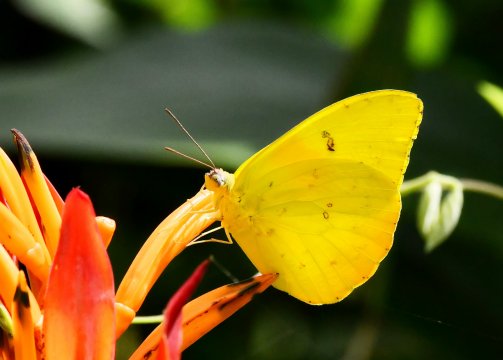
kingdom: Animalia
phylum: Arthropoda
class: Insecta
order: Lepidoptera
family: Pieridae
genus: Phoebis
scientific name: Phoebis philea
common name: Orange-barred Sulphur
